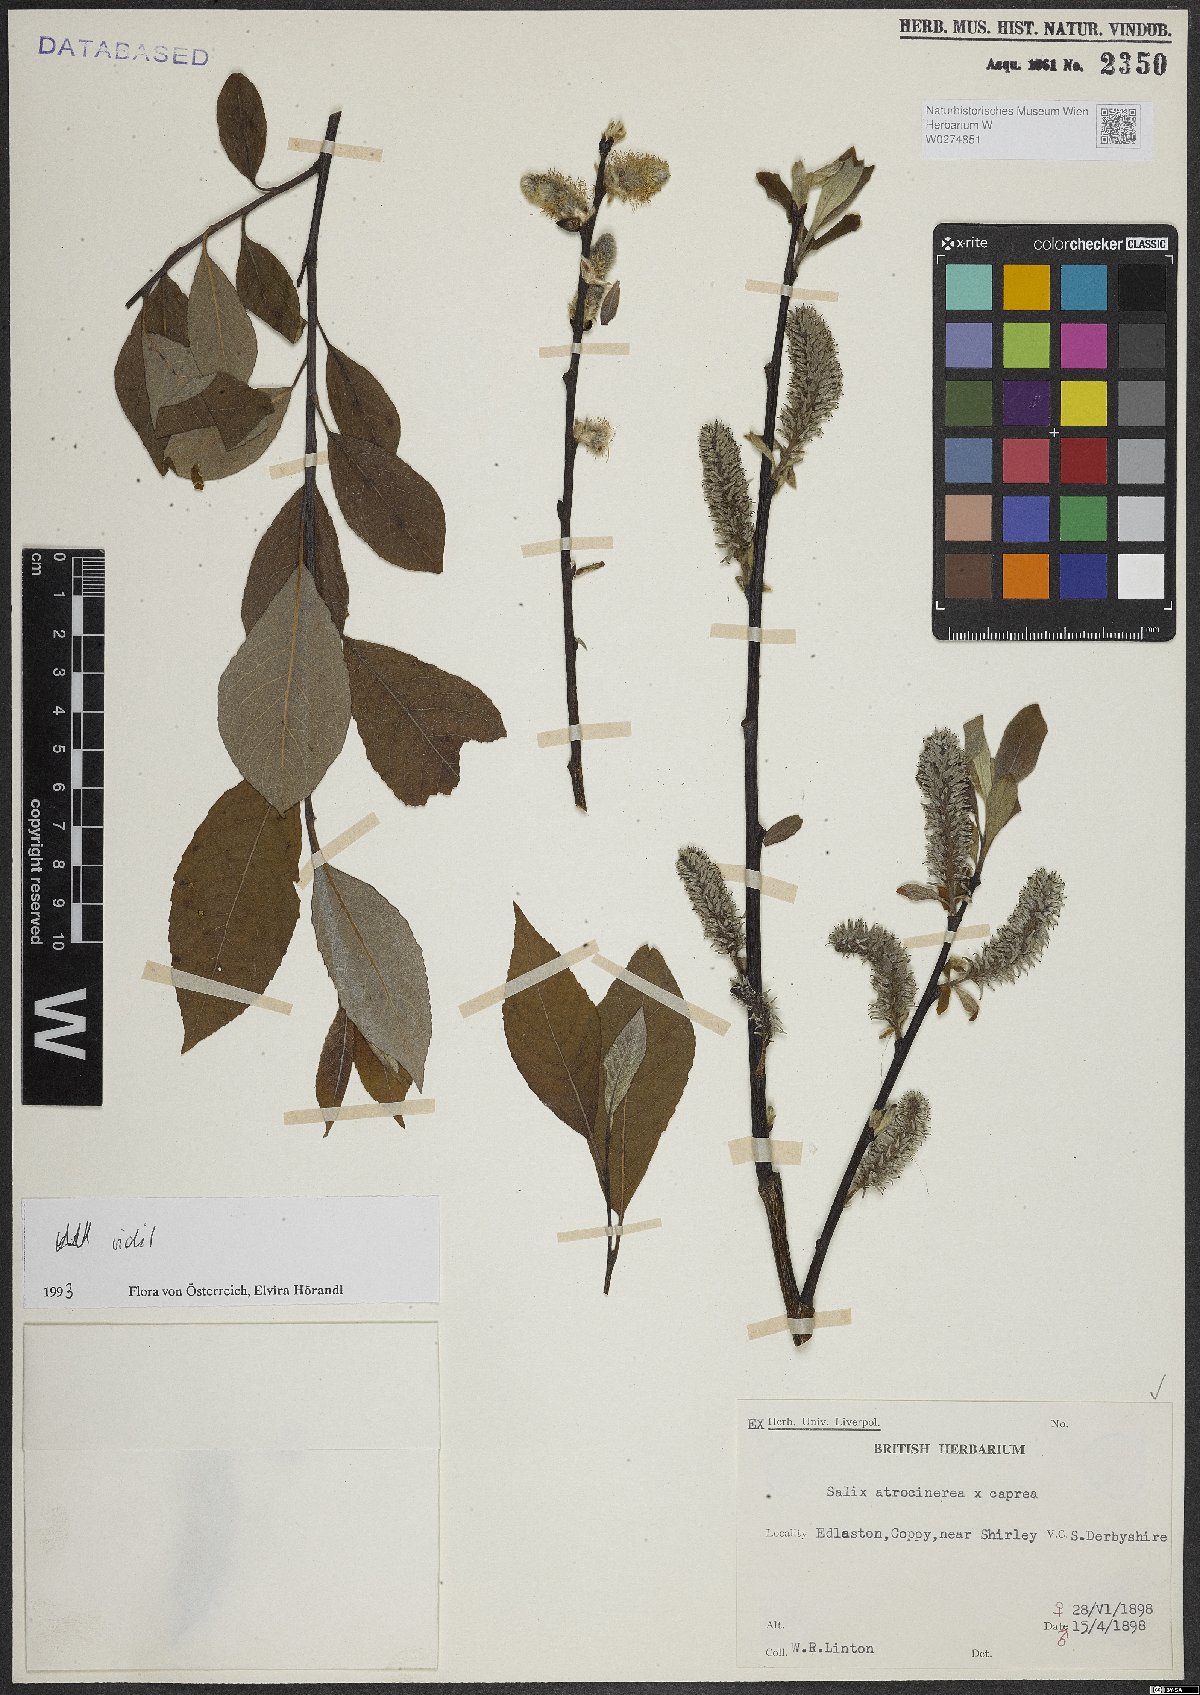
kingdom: Plantae
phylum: Tracheophyta
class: Magnoliopsida
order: Malpighiales
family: Salicaceae
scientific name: Salicaceae
